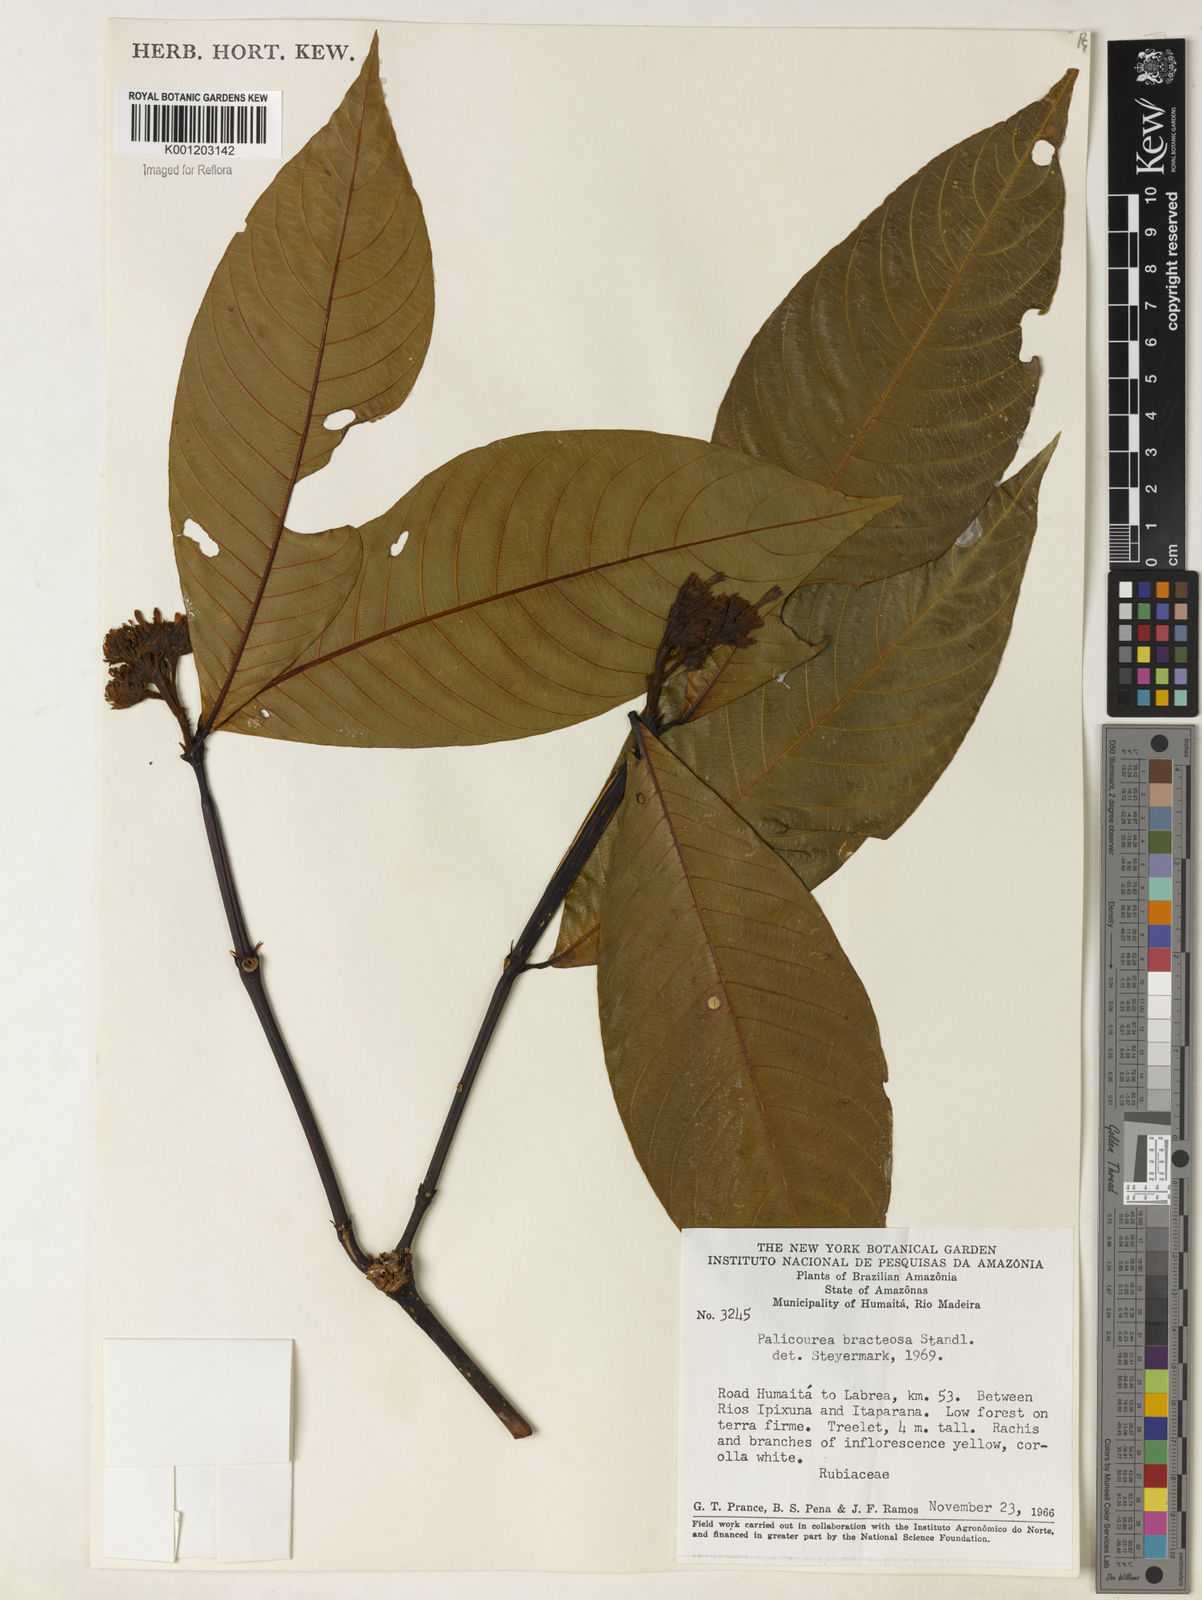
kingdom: Plantae
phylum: Tracheophyta
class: Magnoliopsida
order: Gentianales
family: Rubiaceae
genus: Palicourea
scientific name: Palicourea bracteosa
